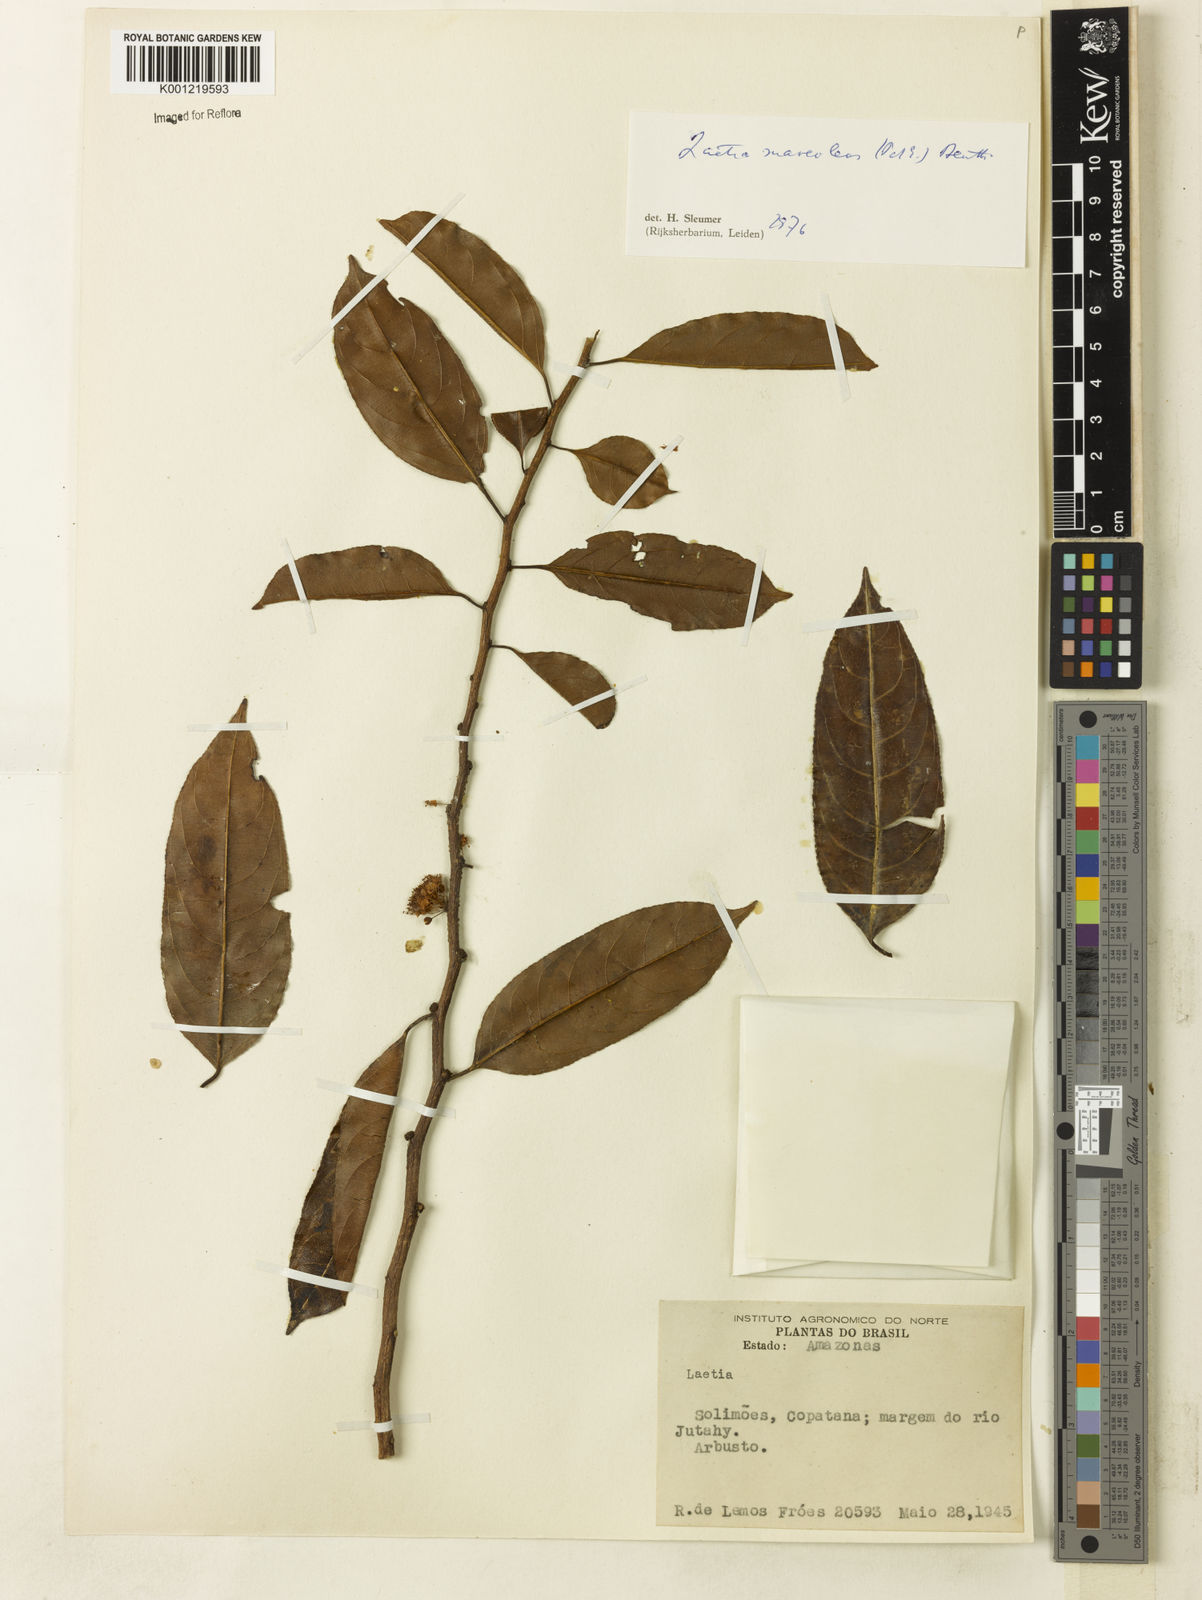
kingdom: Plantae
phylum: Tracheophyta
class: Magnoliopsida
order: Malpighiales
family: Salicaceae
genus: Casearia
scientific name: Casearia suaveolens
